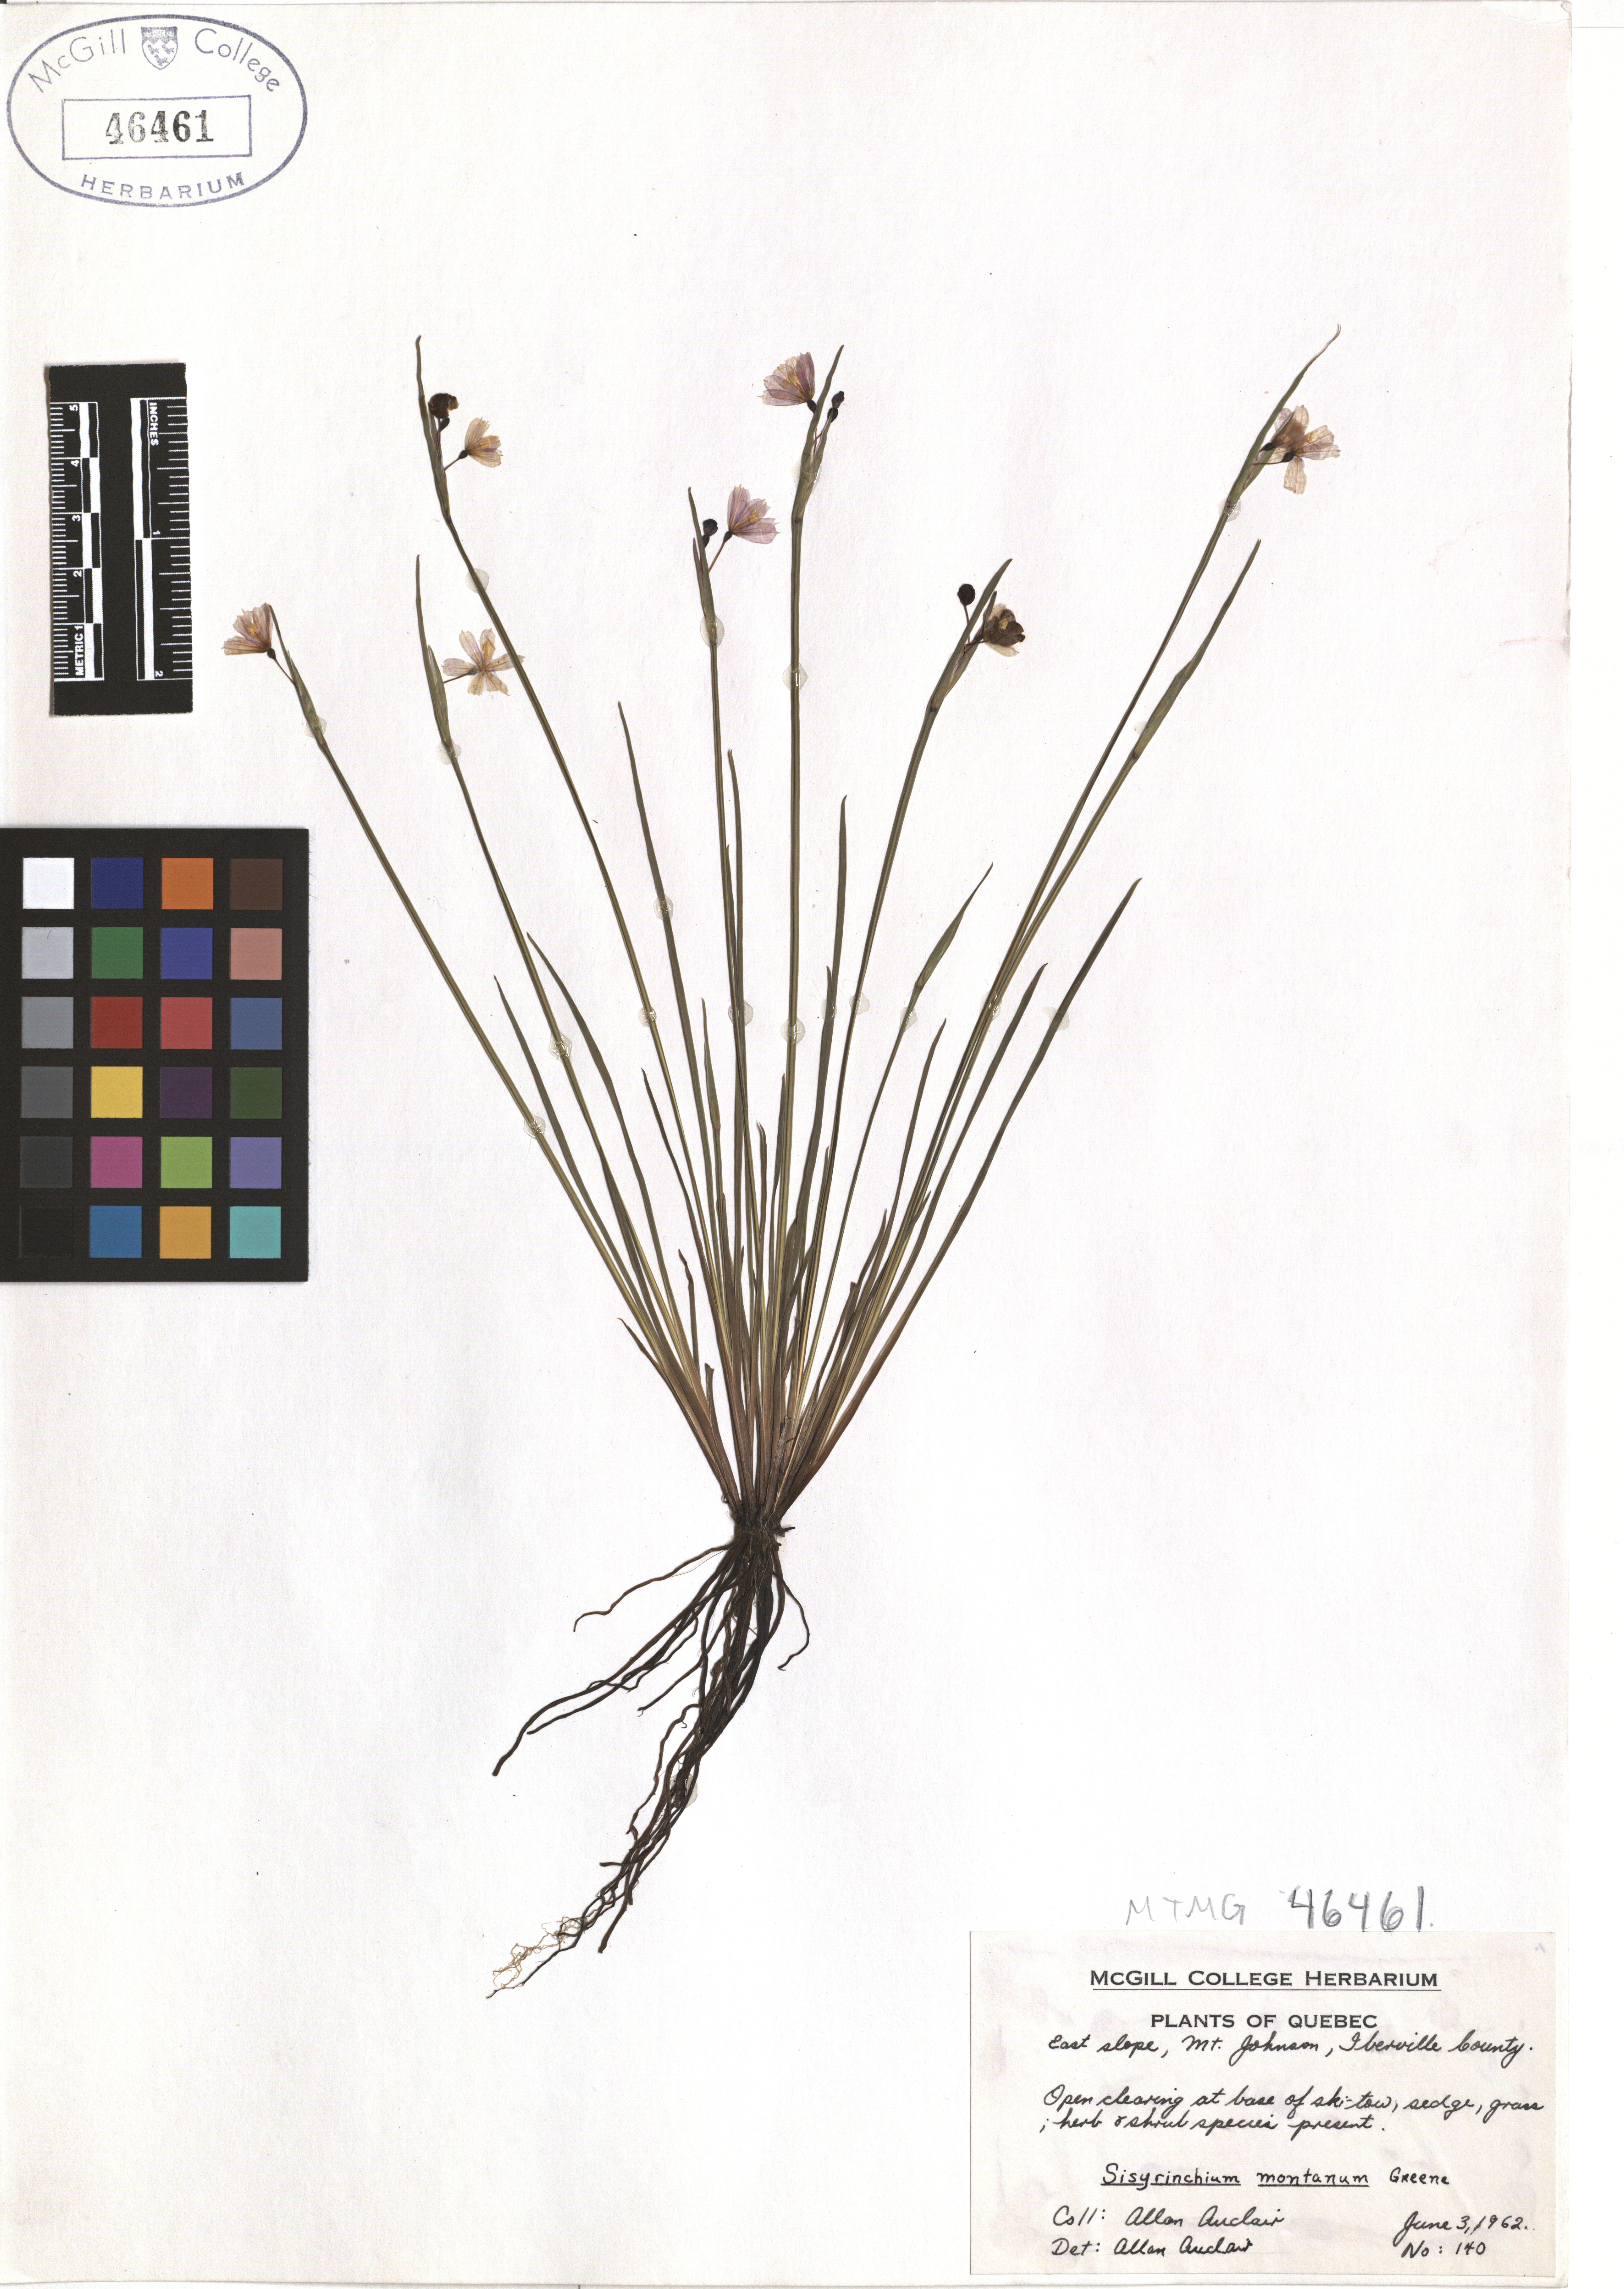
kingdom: Plantae
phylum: Tracheophyta
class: Liliopsida
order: Asparagales
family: Iridaceae
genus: Sisyrinchium
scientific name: Sisyrinchium montanum
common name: American blue-eyed-grass
